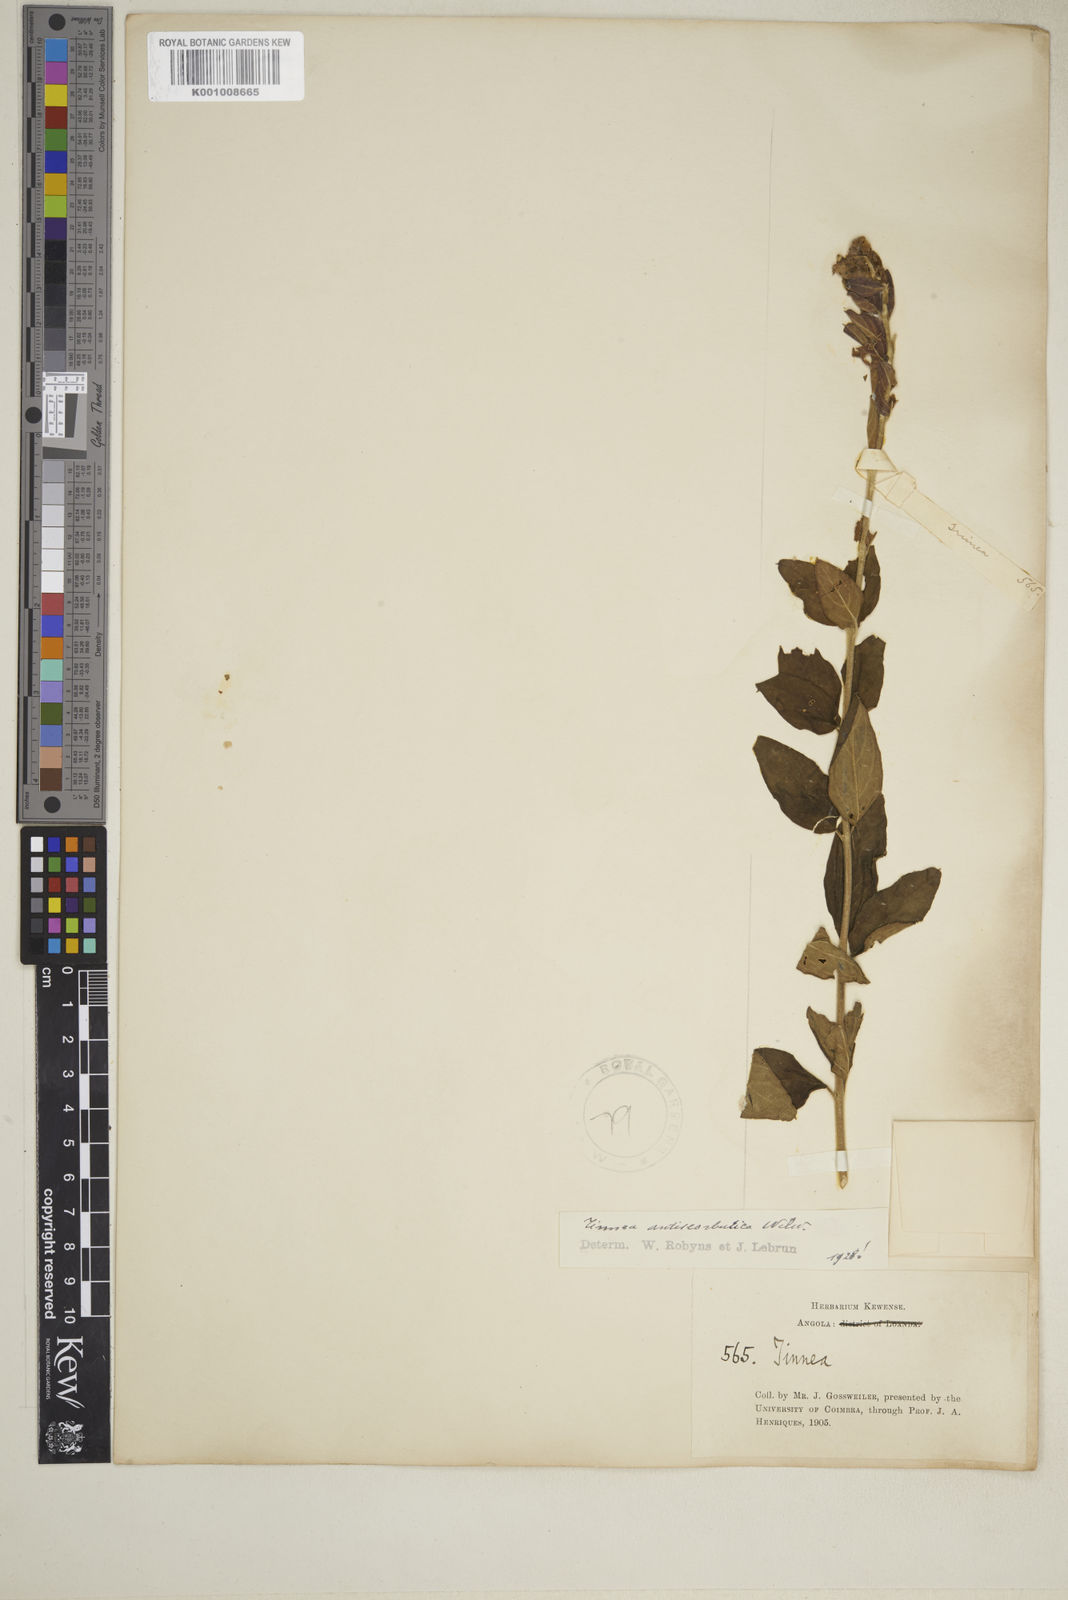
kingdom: Plantae
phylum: Tracheophyta
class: Magnoliopsida
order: Lamiales
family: Lamiaceae
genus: Tinnea
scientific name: Tinnea antiscorbutica
